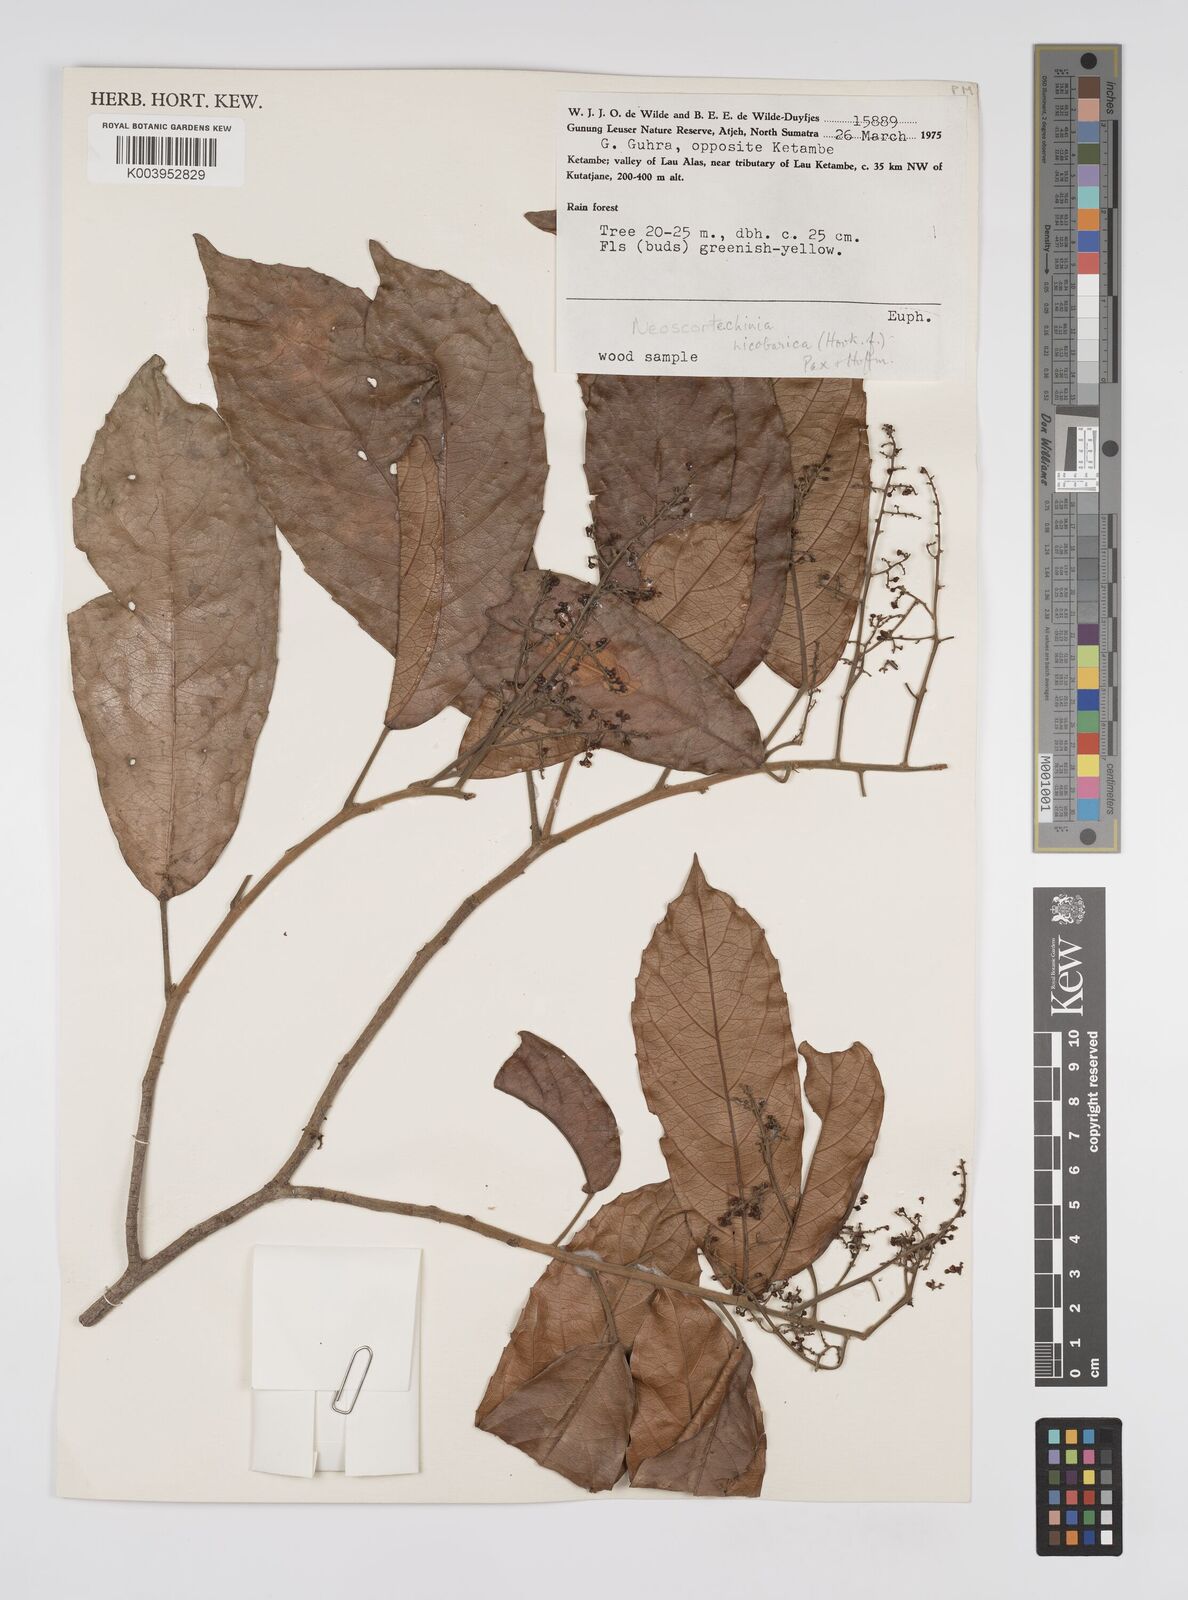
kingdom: Plantae
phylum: Tracheophyta
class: Magnoliopsida
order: Malpighiales
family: Euphorbiaceae
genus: Neoscortechinia
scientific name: Neoscortechinia nicobarica
